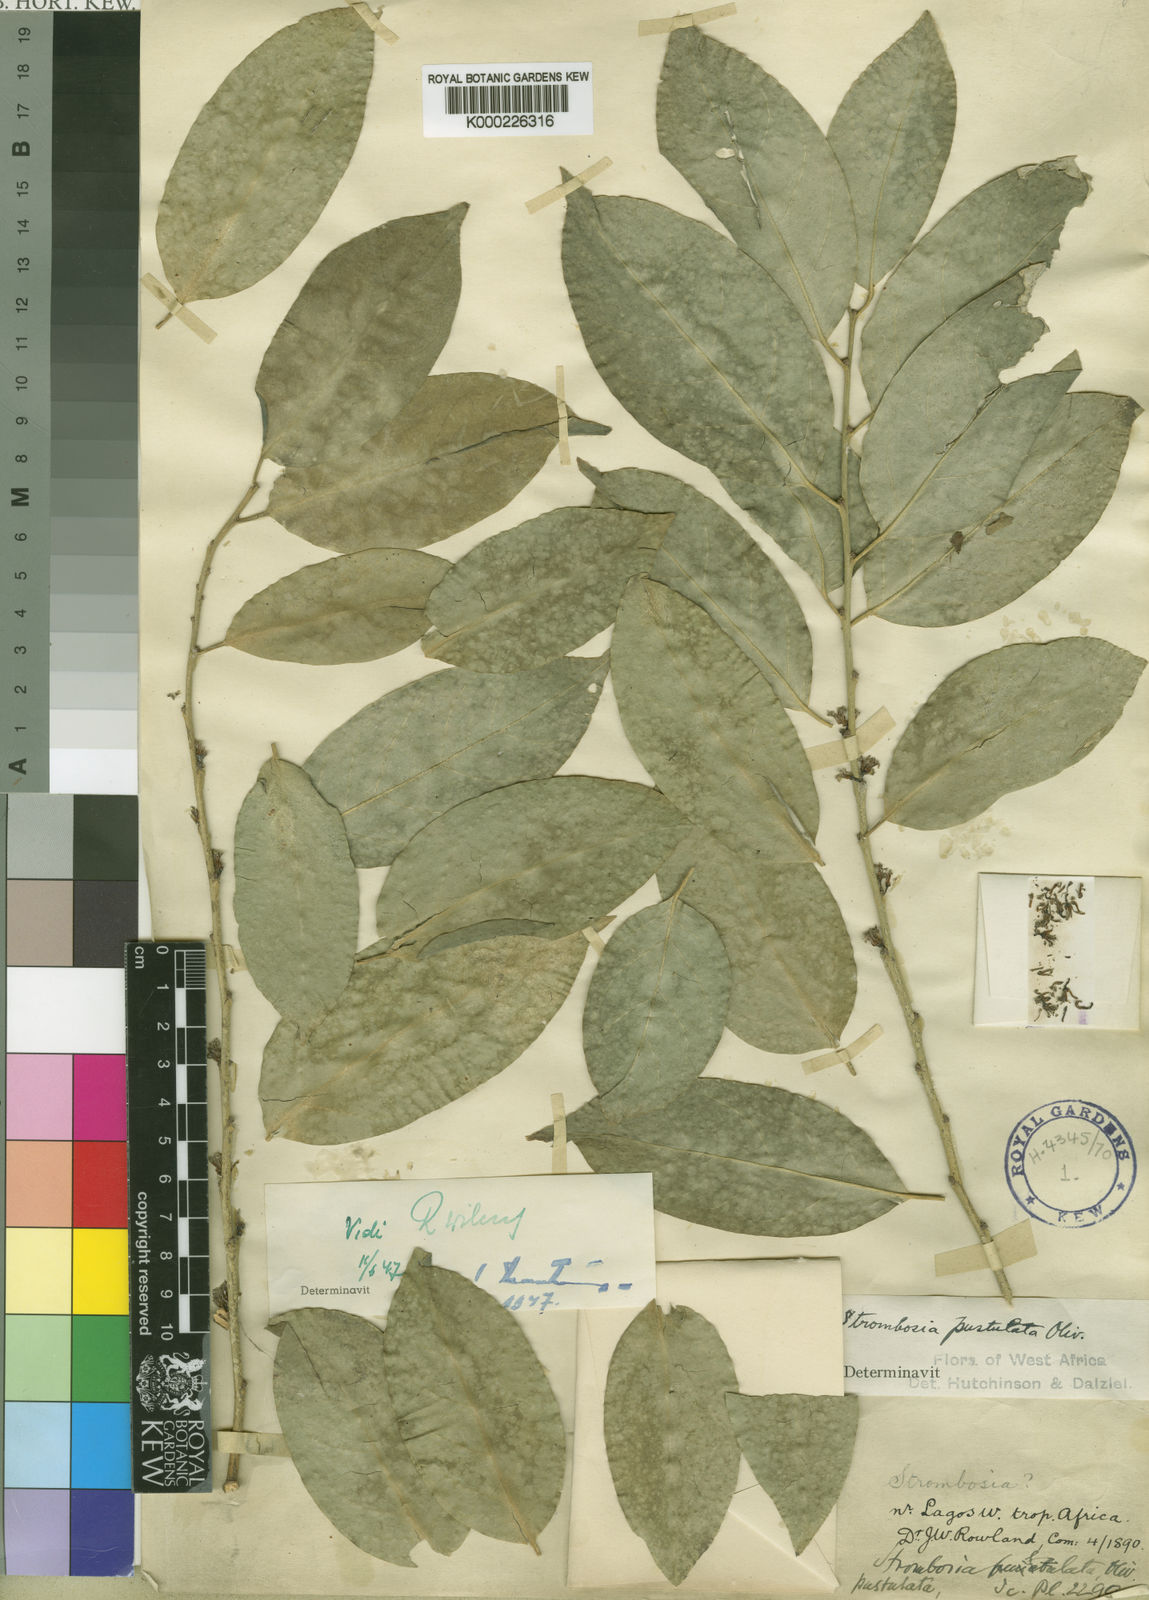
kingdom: Plantae
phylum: Tracheophyta
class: Magnoliopsida
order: Santalales
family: Strombosiaceae
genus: Strombosia
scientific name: Strombosia pustulata
